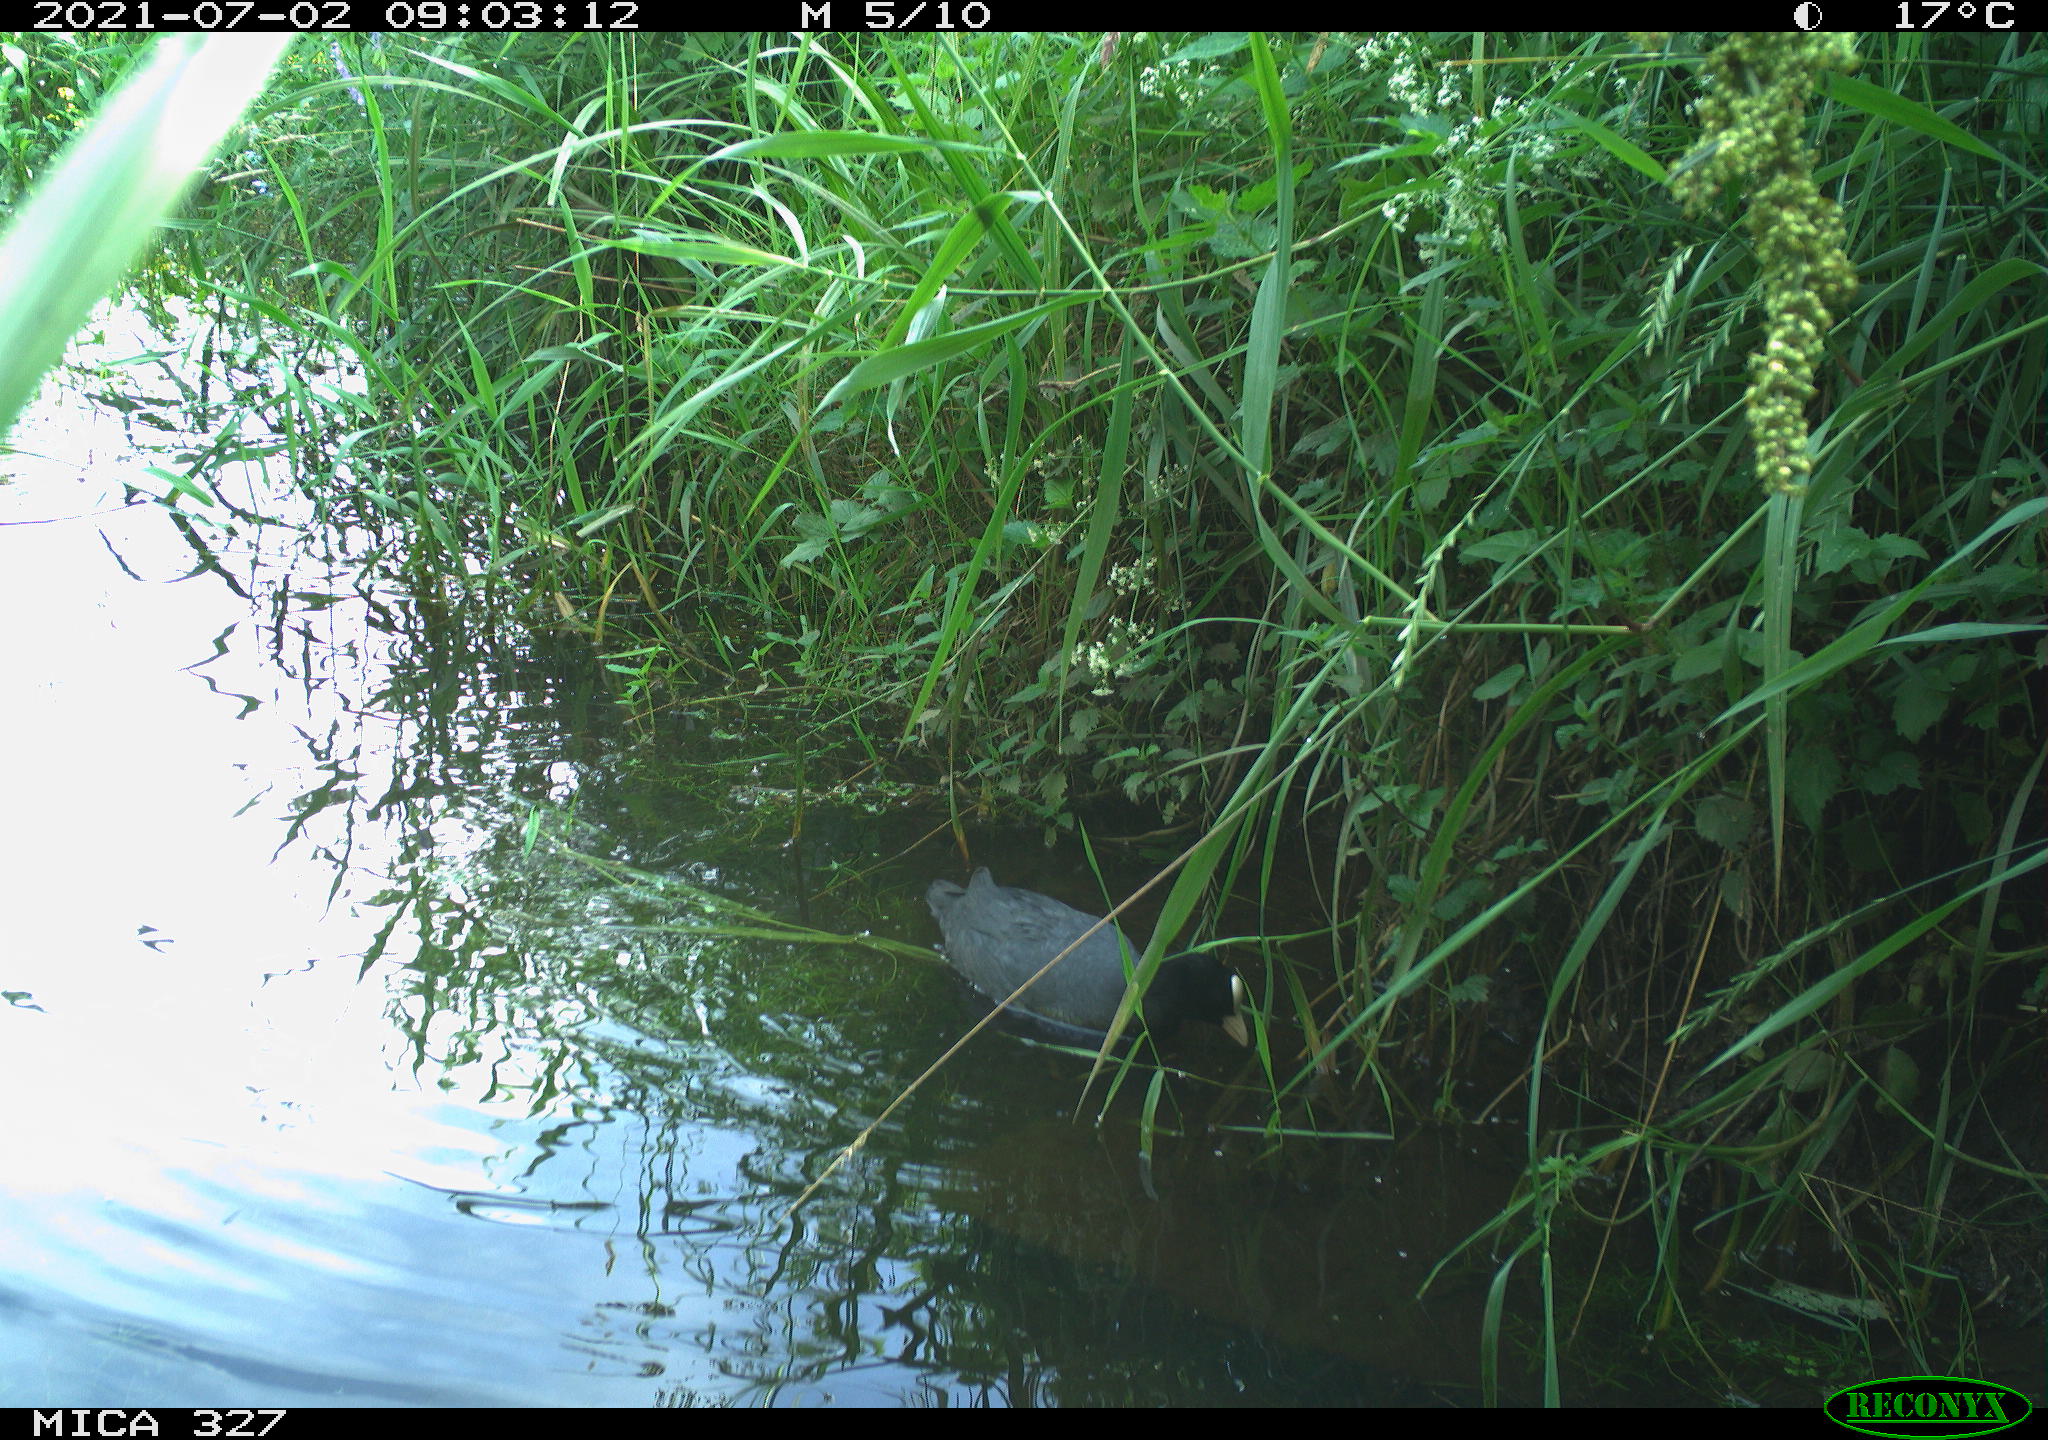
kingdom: Animalia
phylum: Chordata
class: Aves
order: Gruiformes
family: Rallidae
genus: Fulica
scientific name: Fulica atra
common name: Eurasian coot
